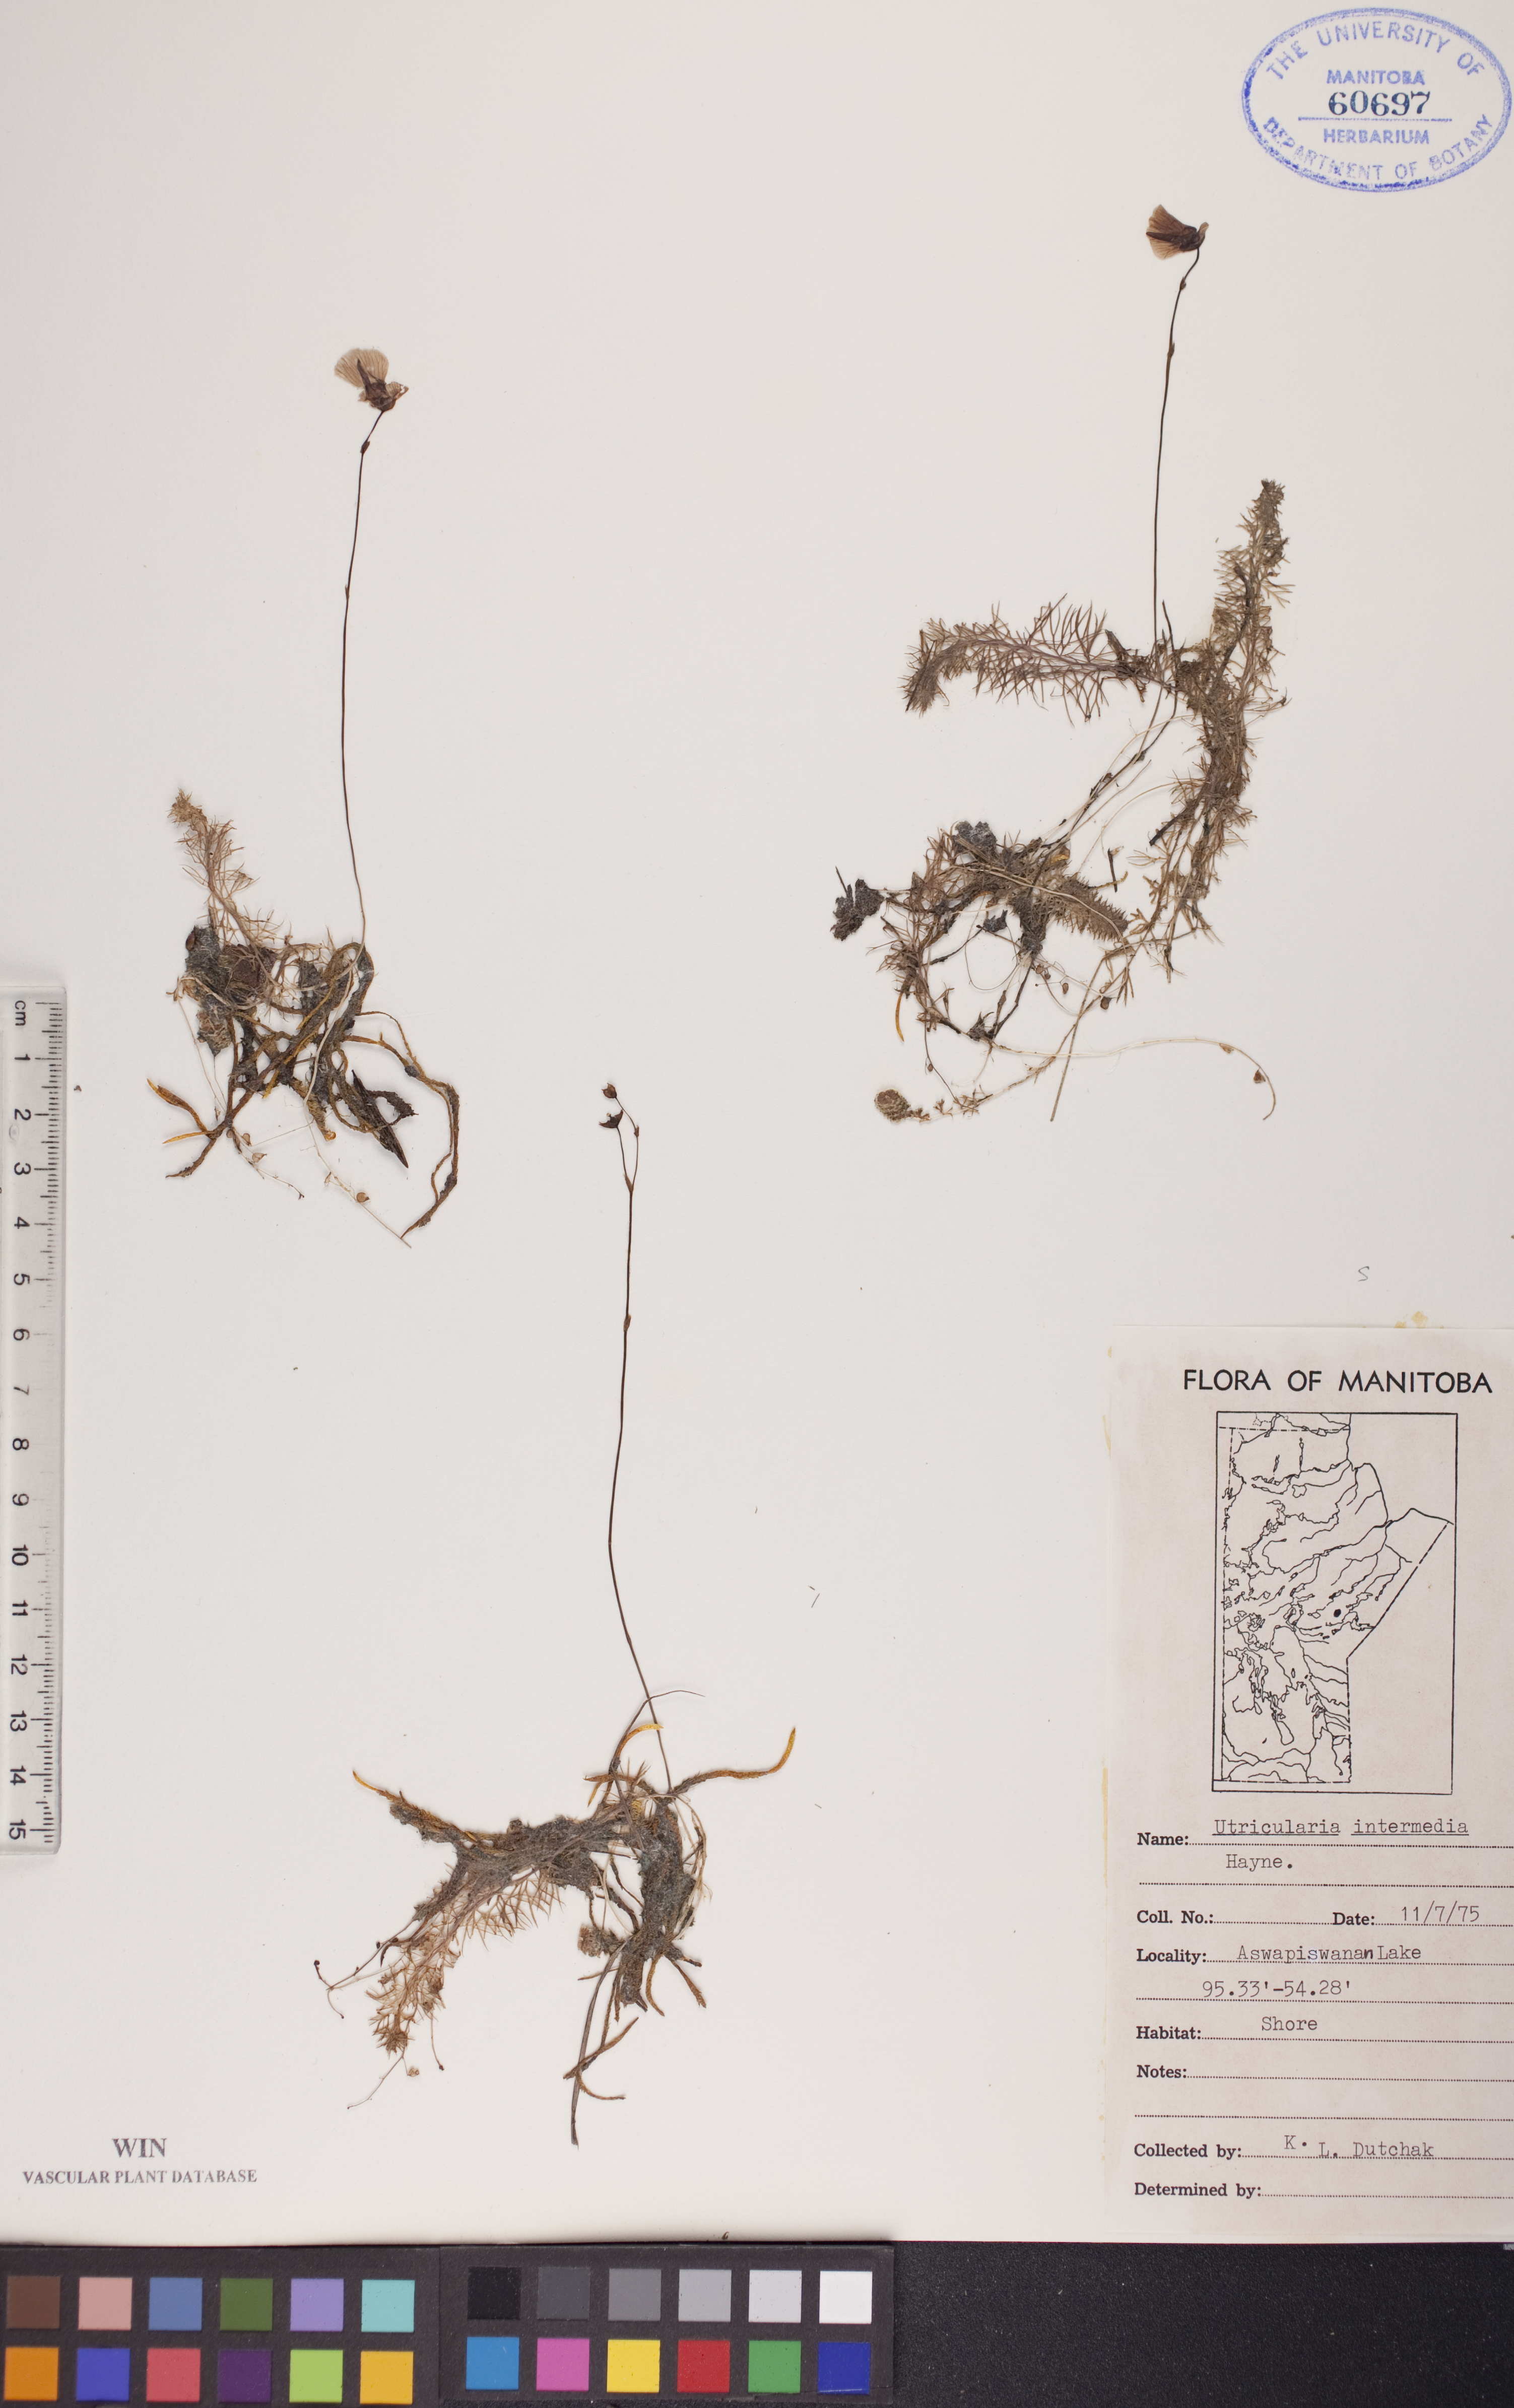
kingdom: Plantae
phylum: Tracheophyta
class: Magnoliopsida
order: Lamiales
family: Lentibulariaceae
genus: Utricularia
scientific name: Utricularia intermedia
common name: Intermediate bladderwort
